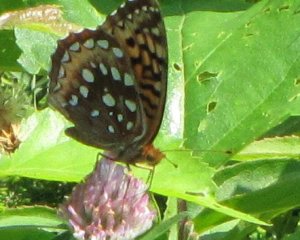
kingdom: Animalia
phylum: Arthropoda
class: Insecta
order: Lepidoptera
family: Nymphalidae
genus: Speyeria
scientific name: Speyeria cybele
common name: Great Spangled Fritillary
